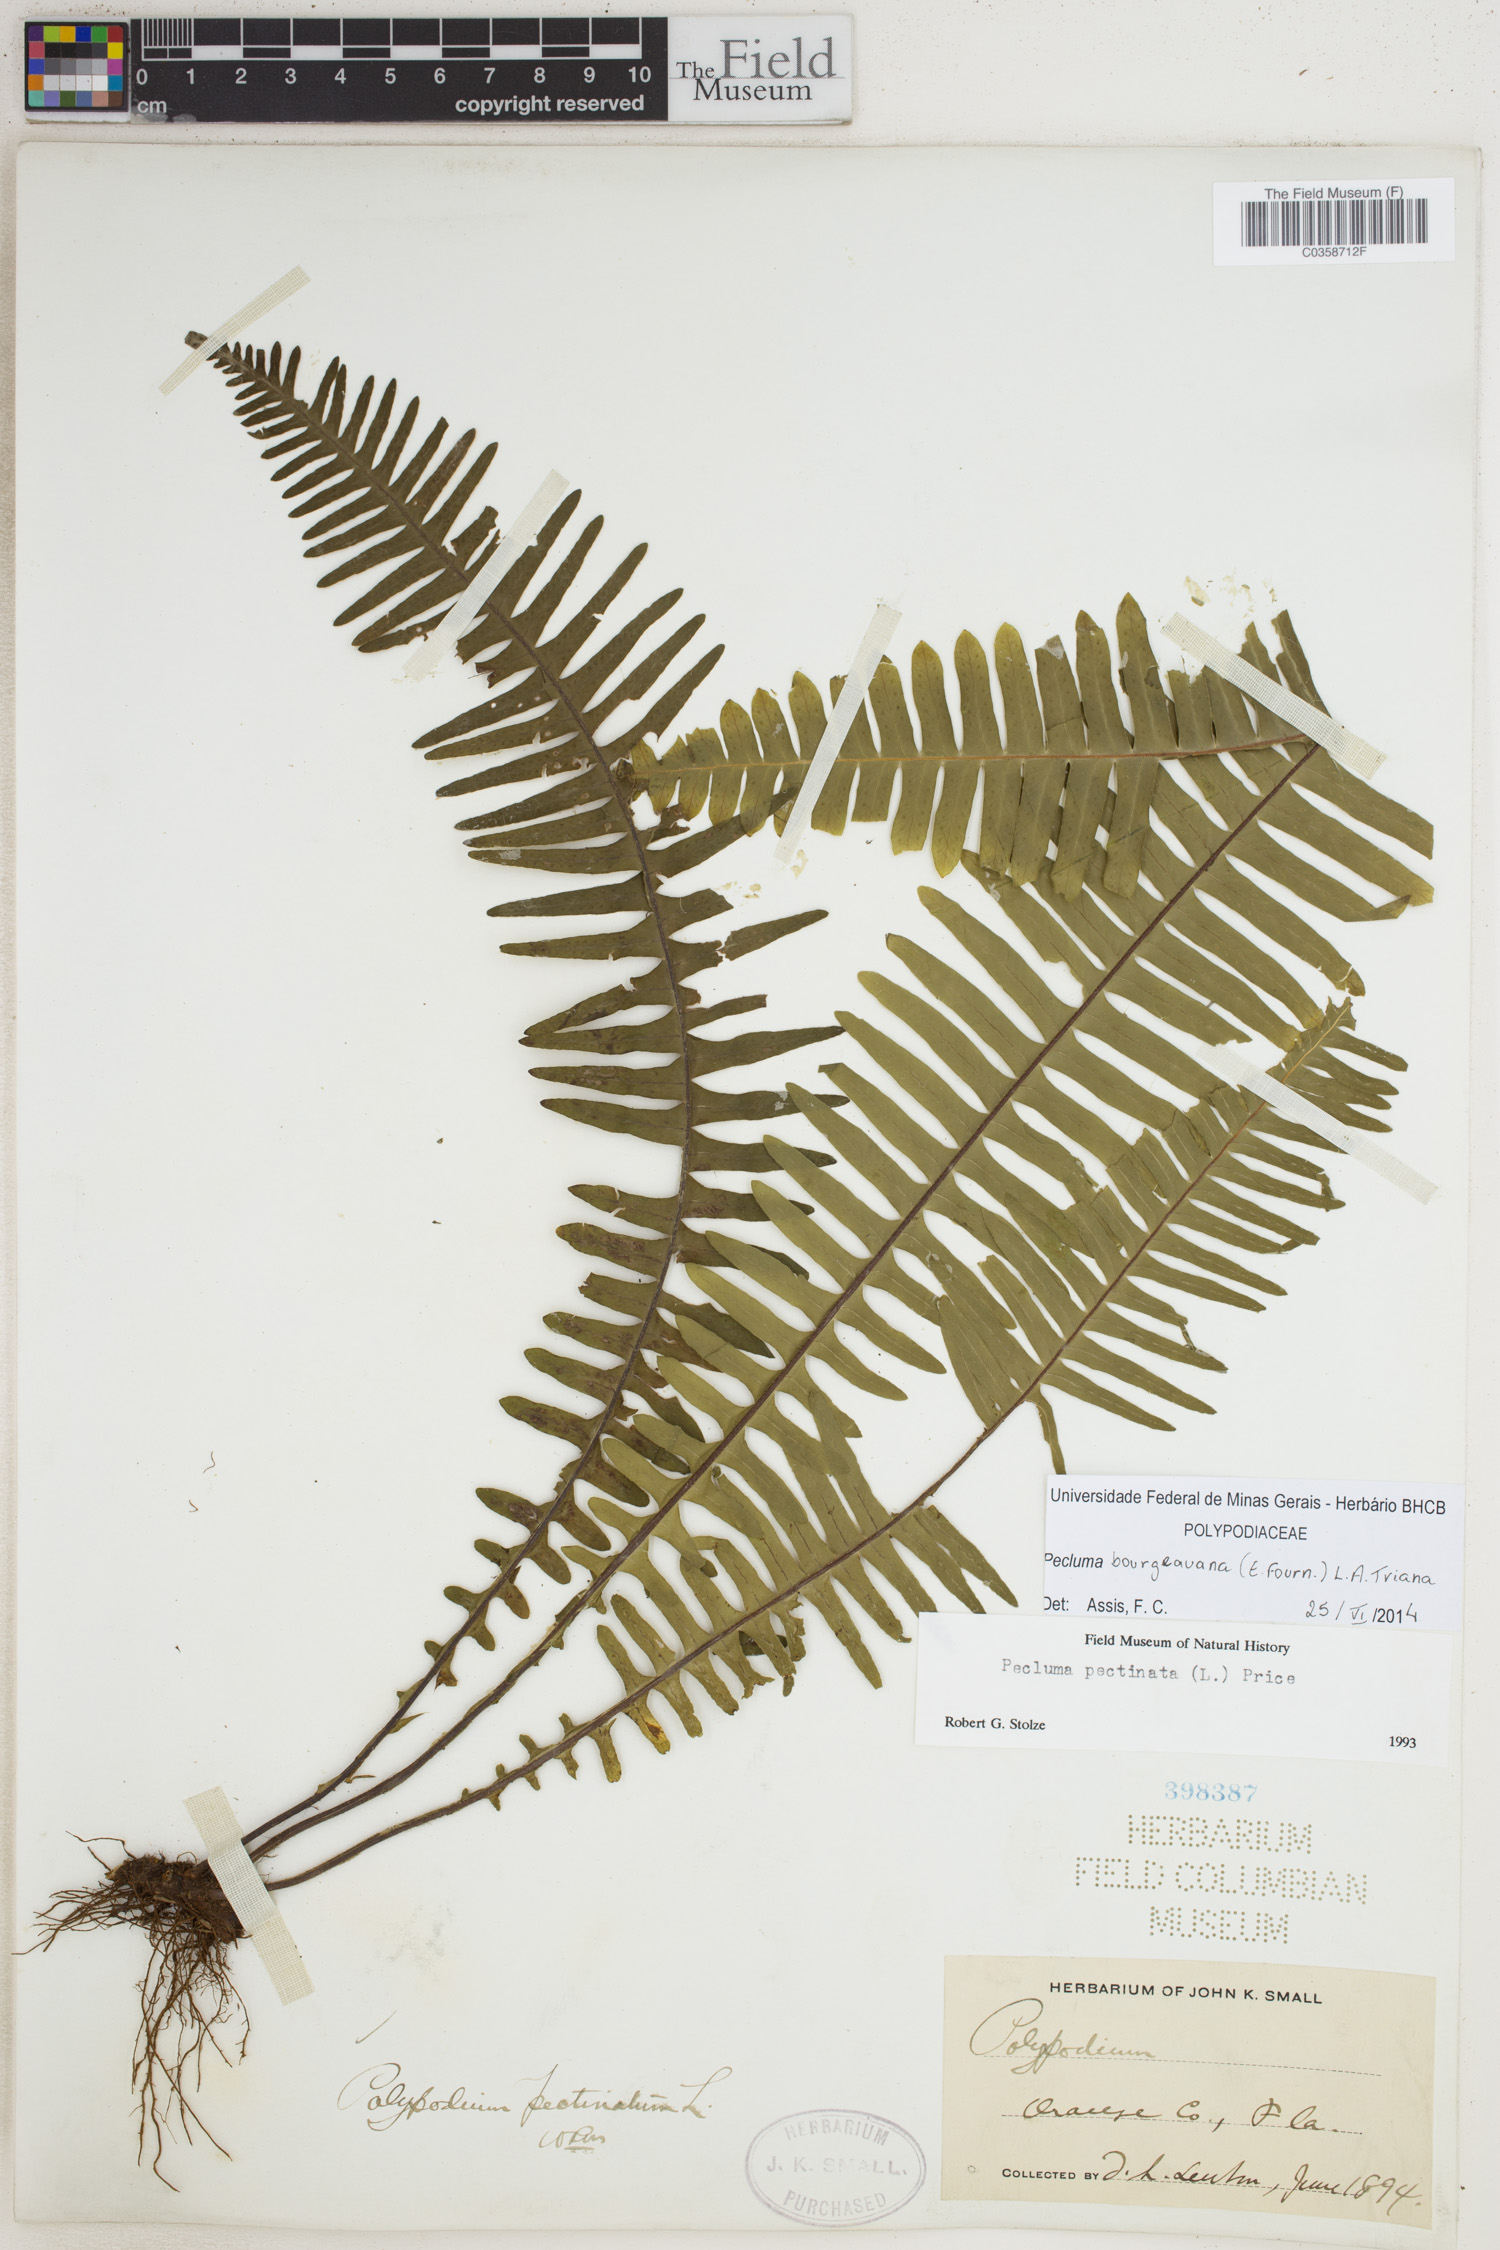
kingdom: Plantae
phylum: Tracheophyta
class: Polypodiopsida
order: Polypodiales
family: Polypodiaceae
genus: Pecluma
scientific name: Pecluma bourgeauana
